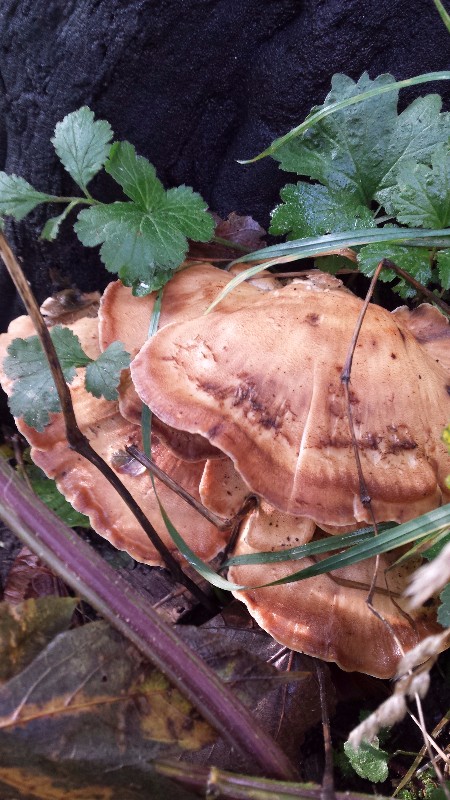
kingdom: Fungi
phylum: Basidiomycota
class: Agaricomycetes
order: Polyporales
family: Meripilaceae
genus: Meripilus
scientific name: Meripilus giganteus
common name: kæmpeporesvamp
